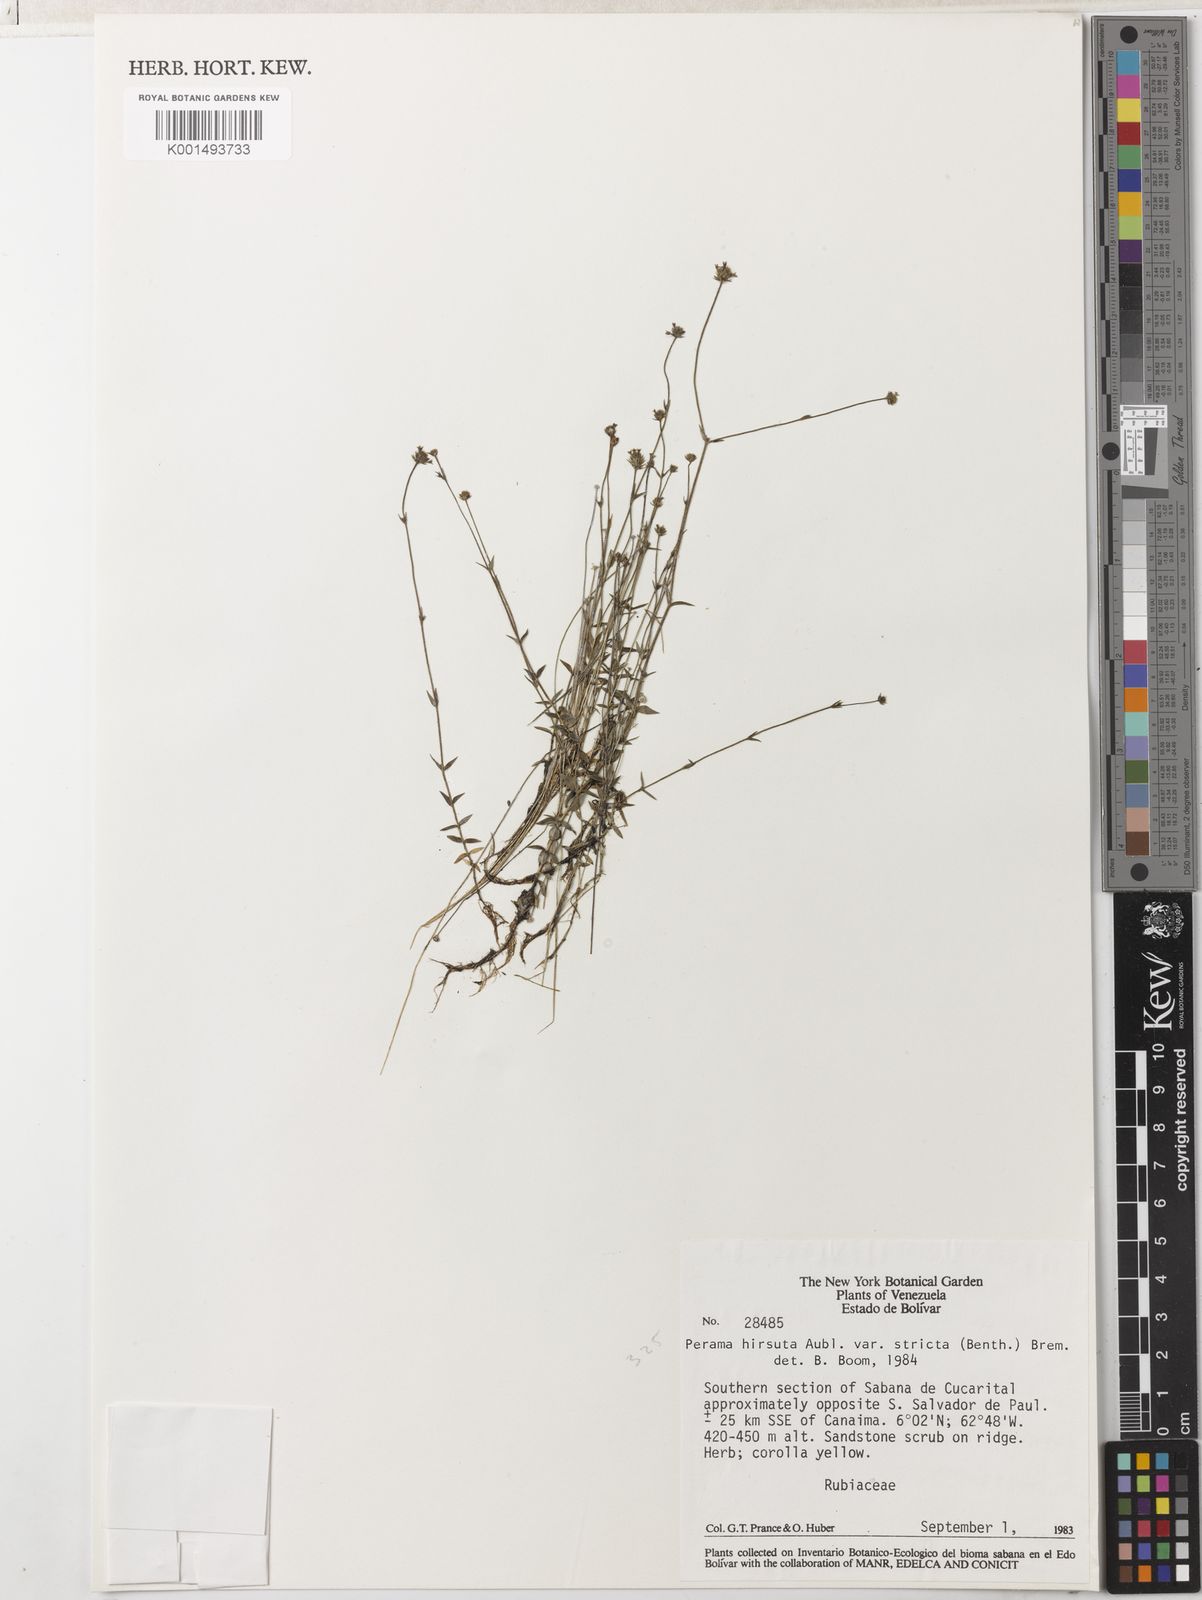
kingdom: Plantae
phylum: Tracheophyta
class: Magnoliopsida
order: Gentianales
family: Rubiaceae
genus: Perama
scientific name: Perama hirsuta
